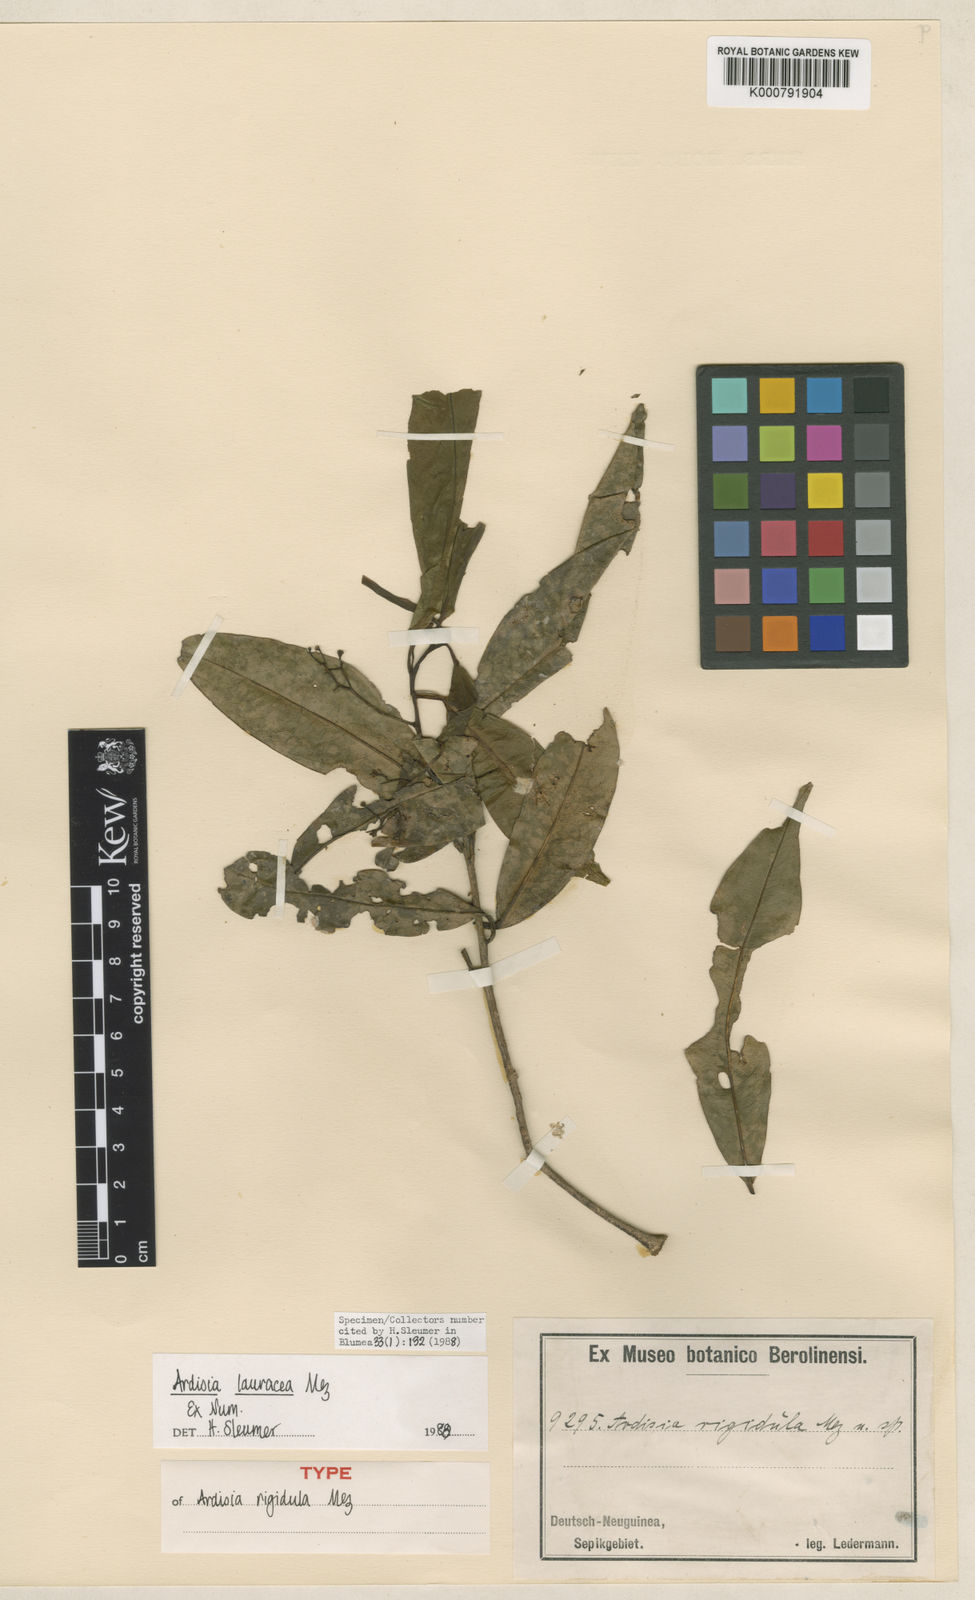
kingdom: Plantae
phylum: Tracheophyta
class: Magnoliopsida
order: Ericales
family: Primulaceae
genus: Ardisia
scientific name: Ardisia lauracea
